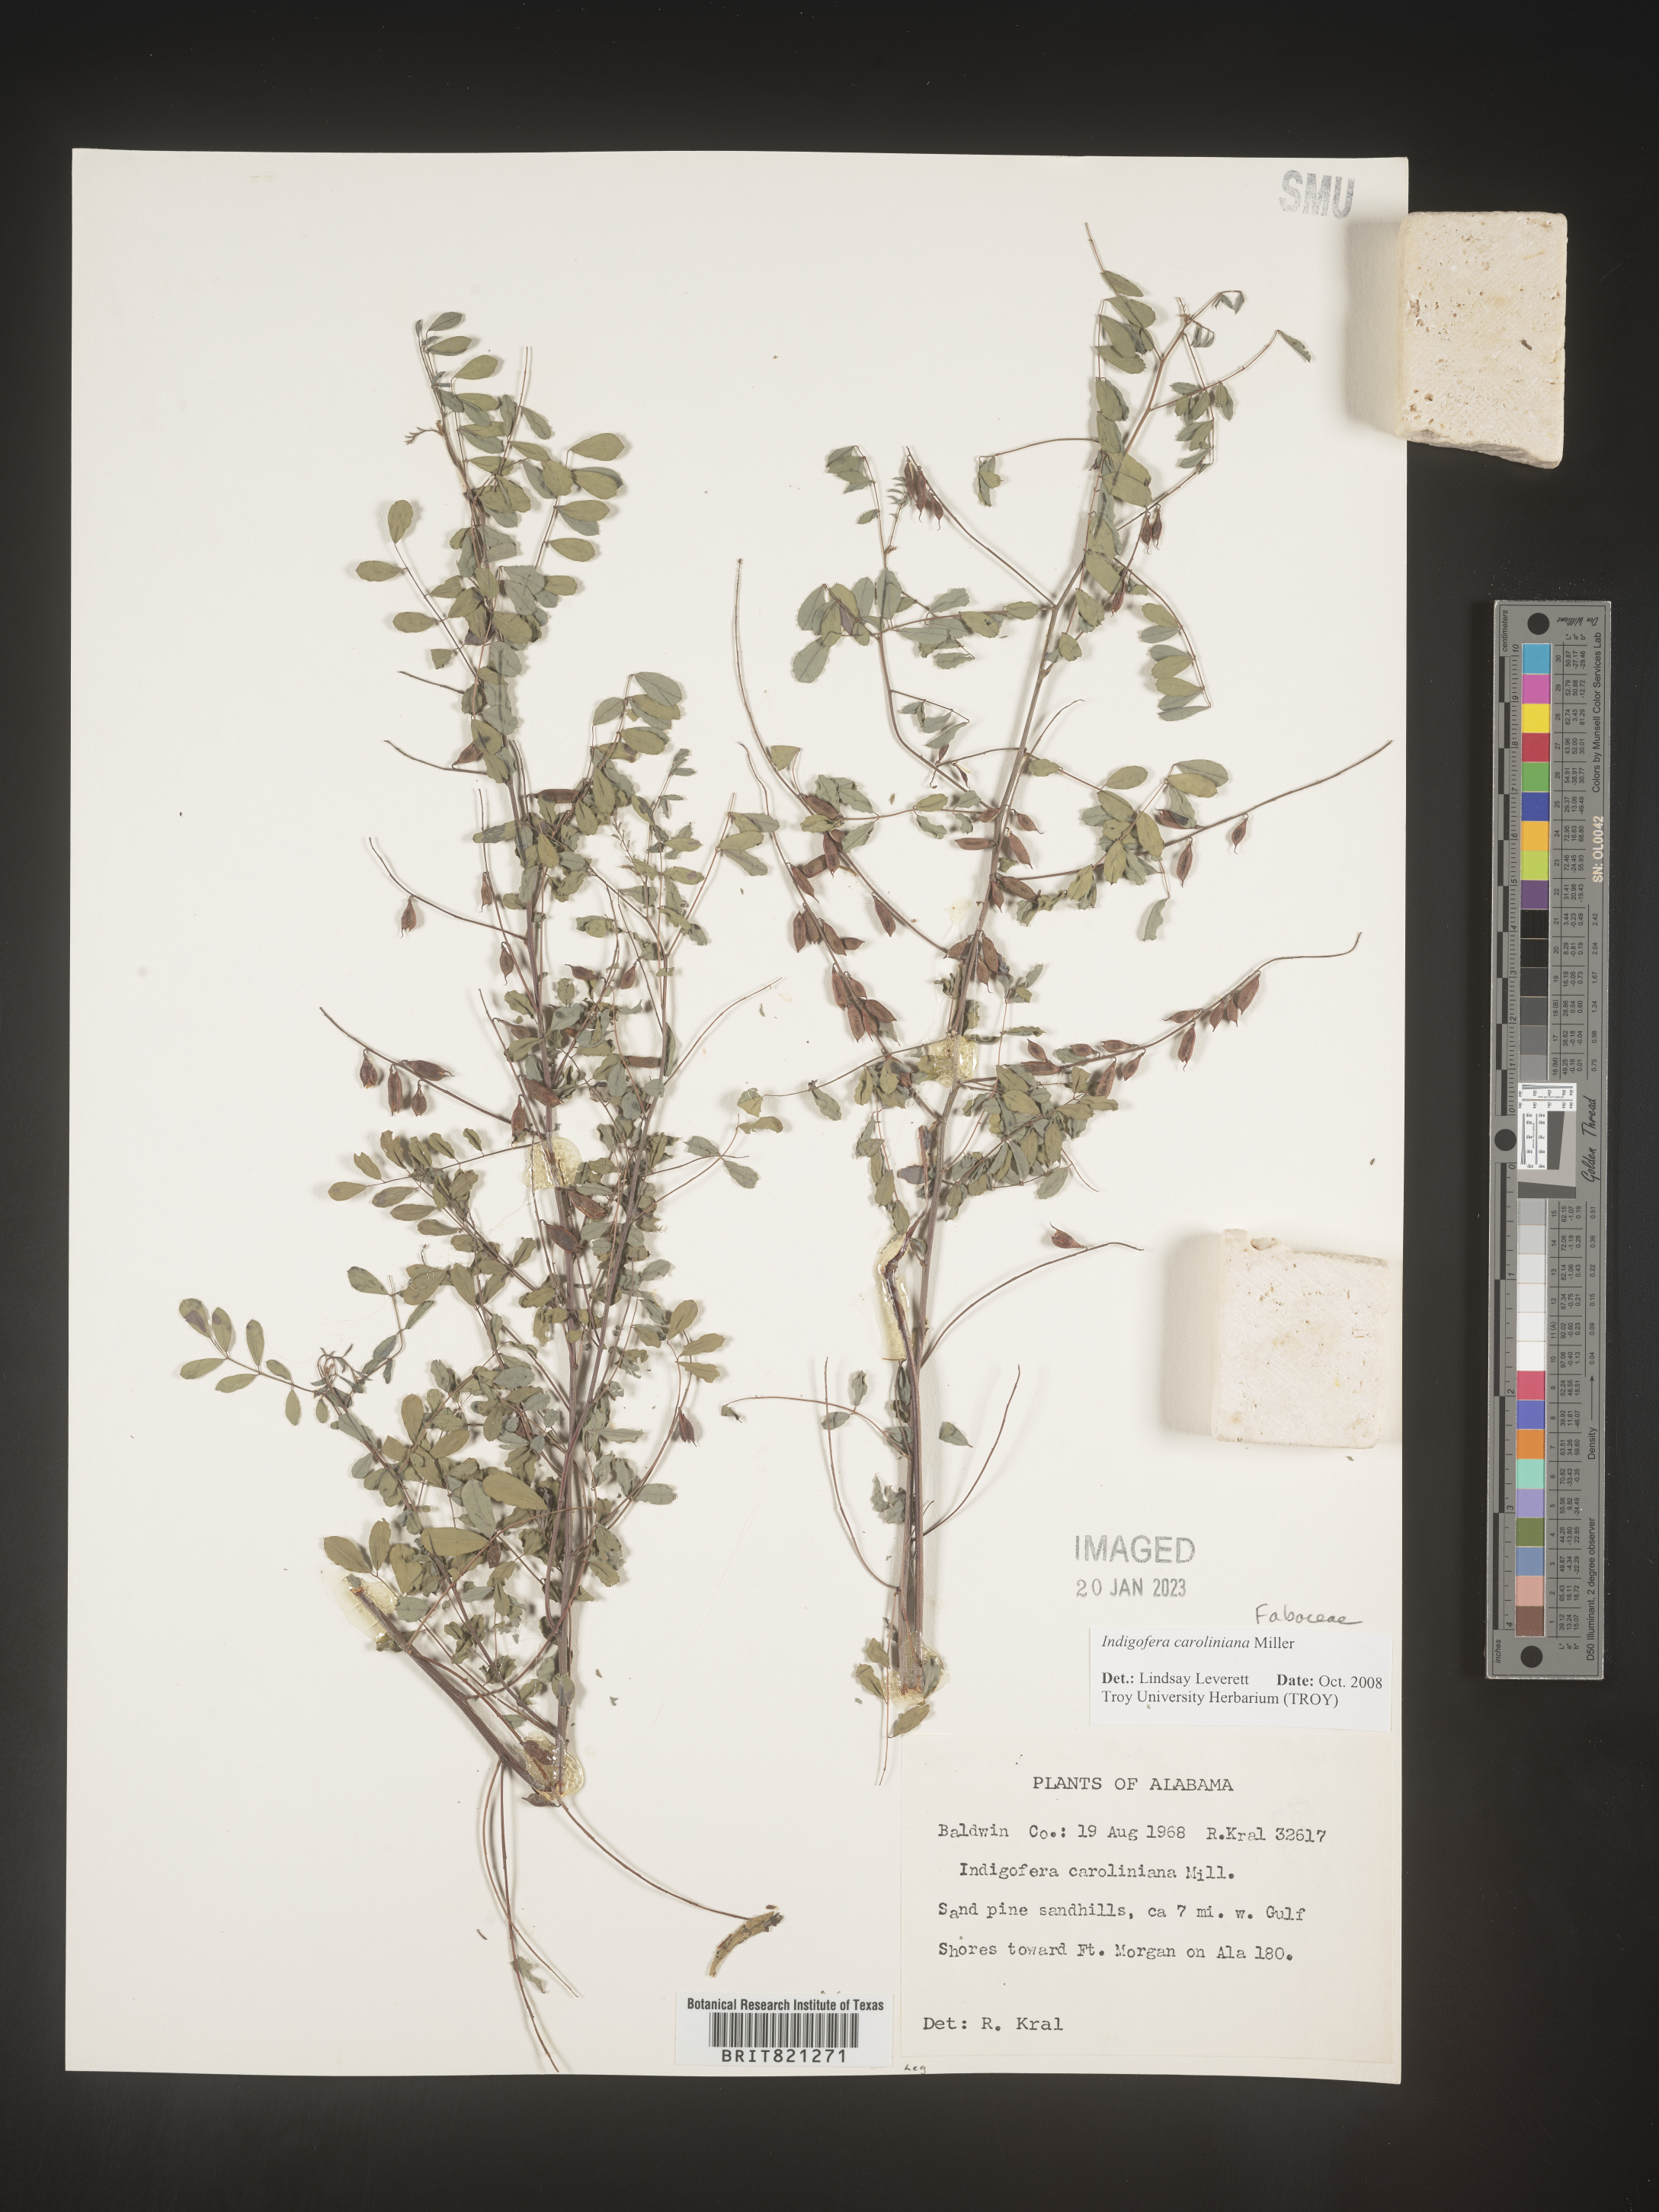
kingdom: Plantae
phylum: Tracheophyta
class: Magnoliopsida
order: Fabales
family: Fabaceae
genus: Indigofera
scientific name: Indigofera
